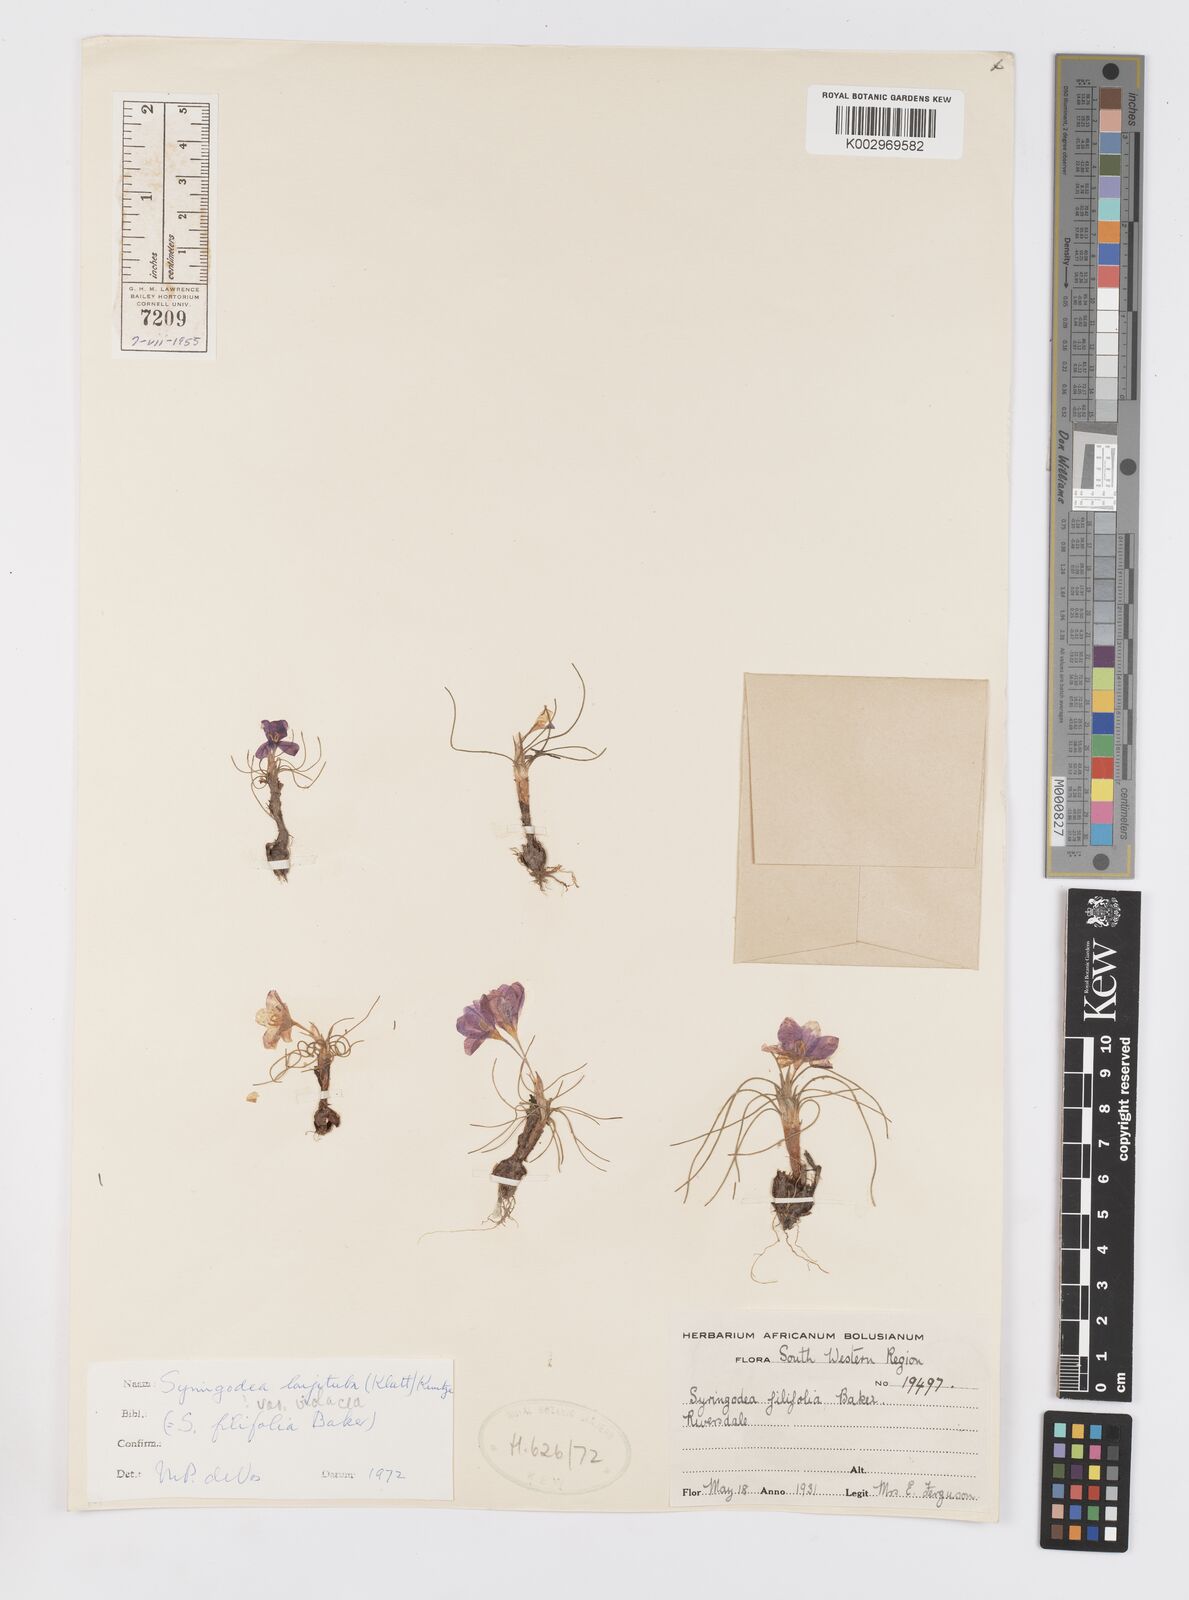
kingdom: Plantae
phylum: Tracheophyta
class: Liliopsida
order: Asparagales
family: Iridaceae
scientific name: Iridaceae
